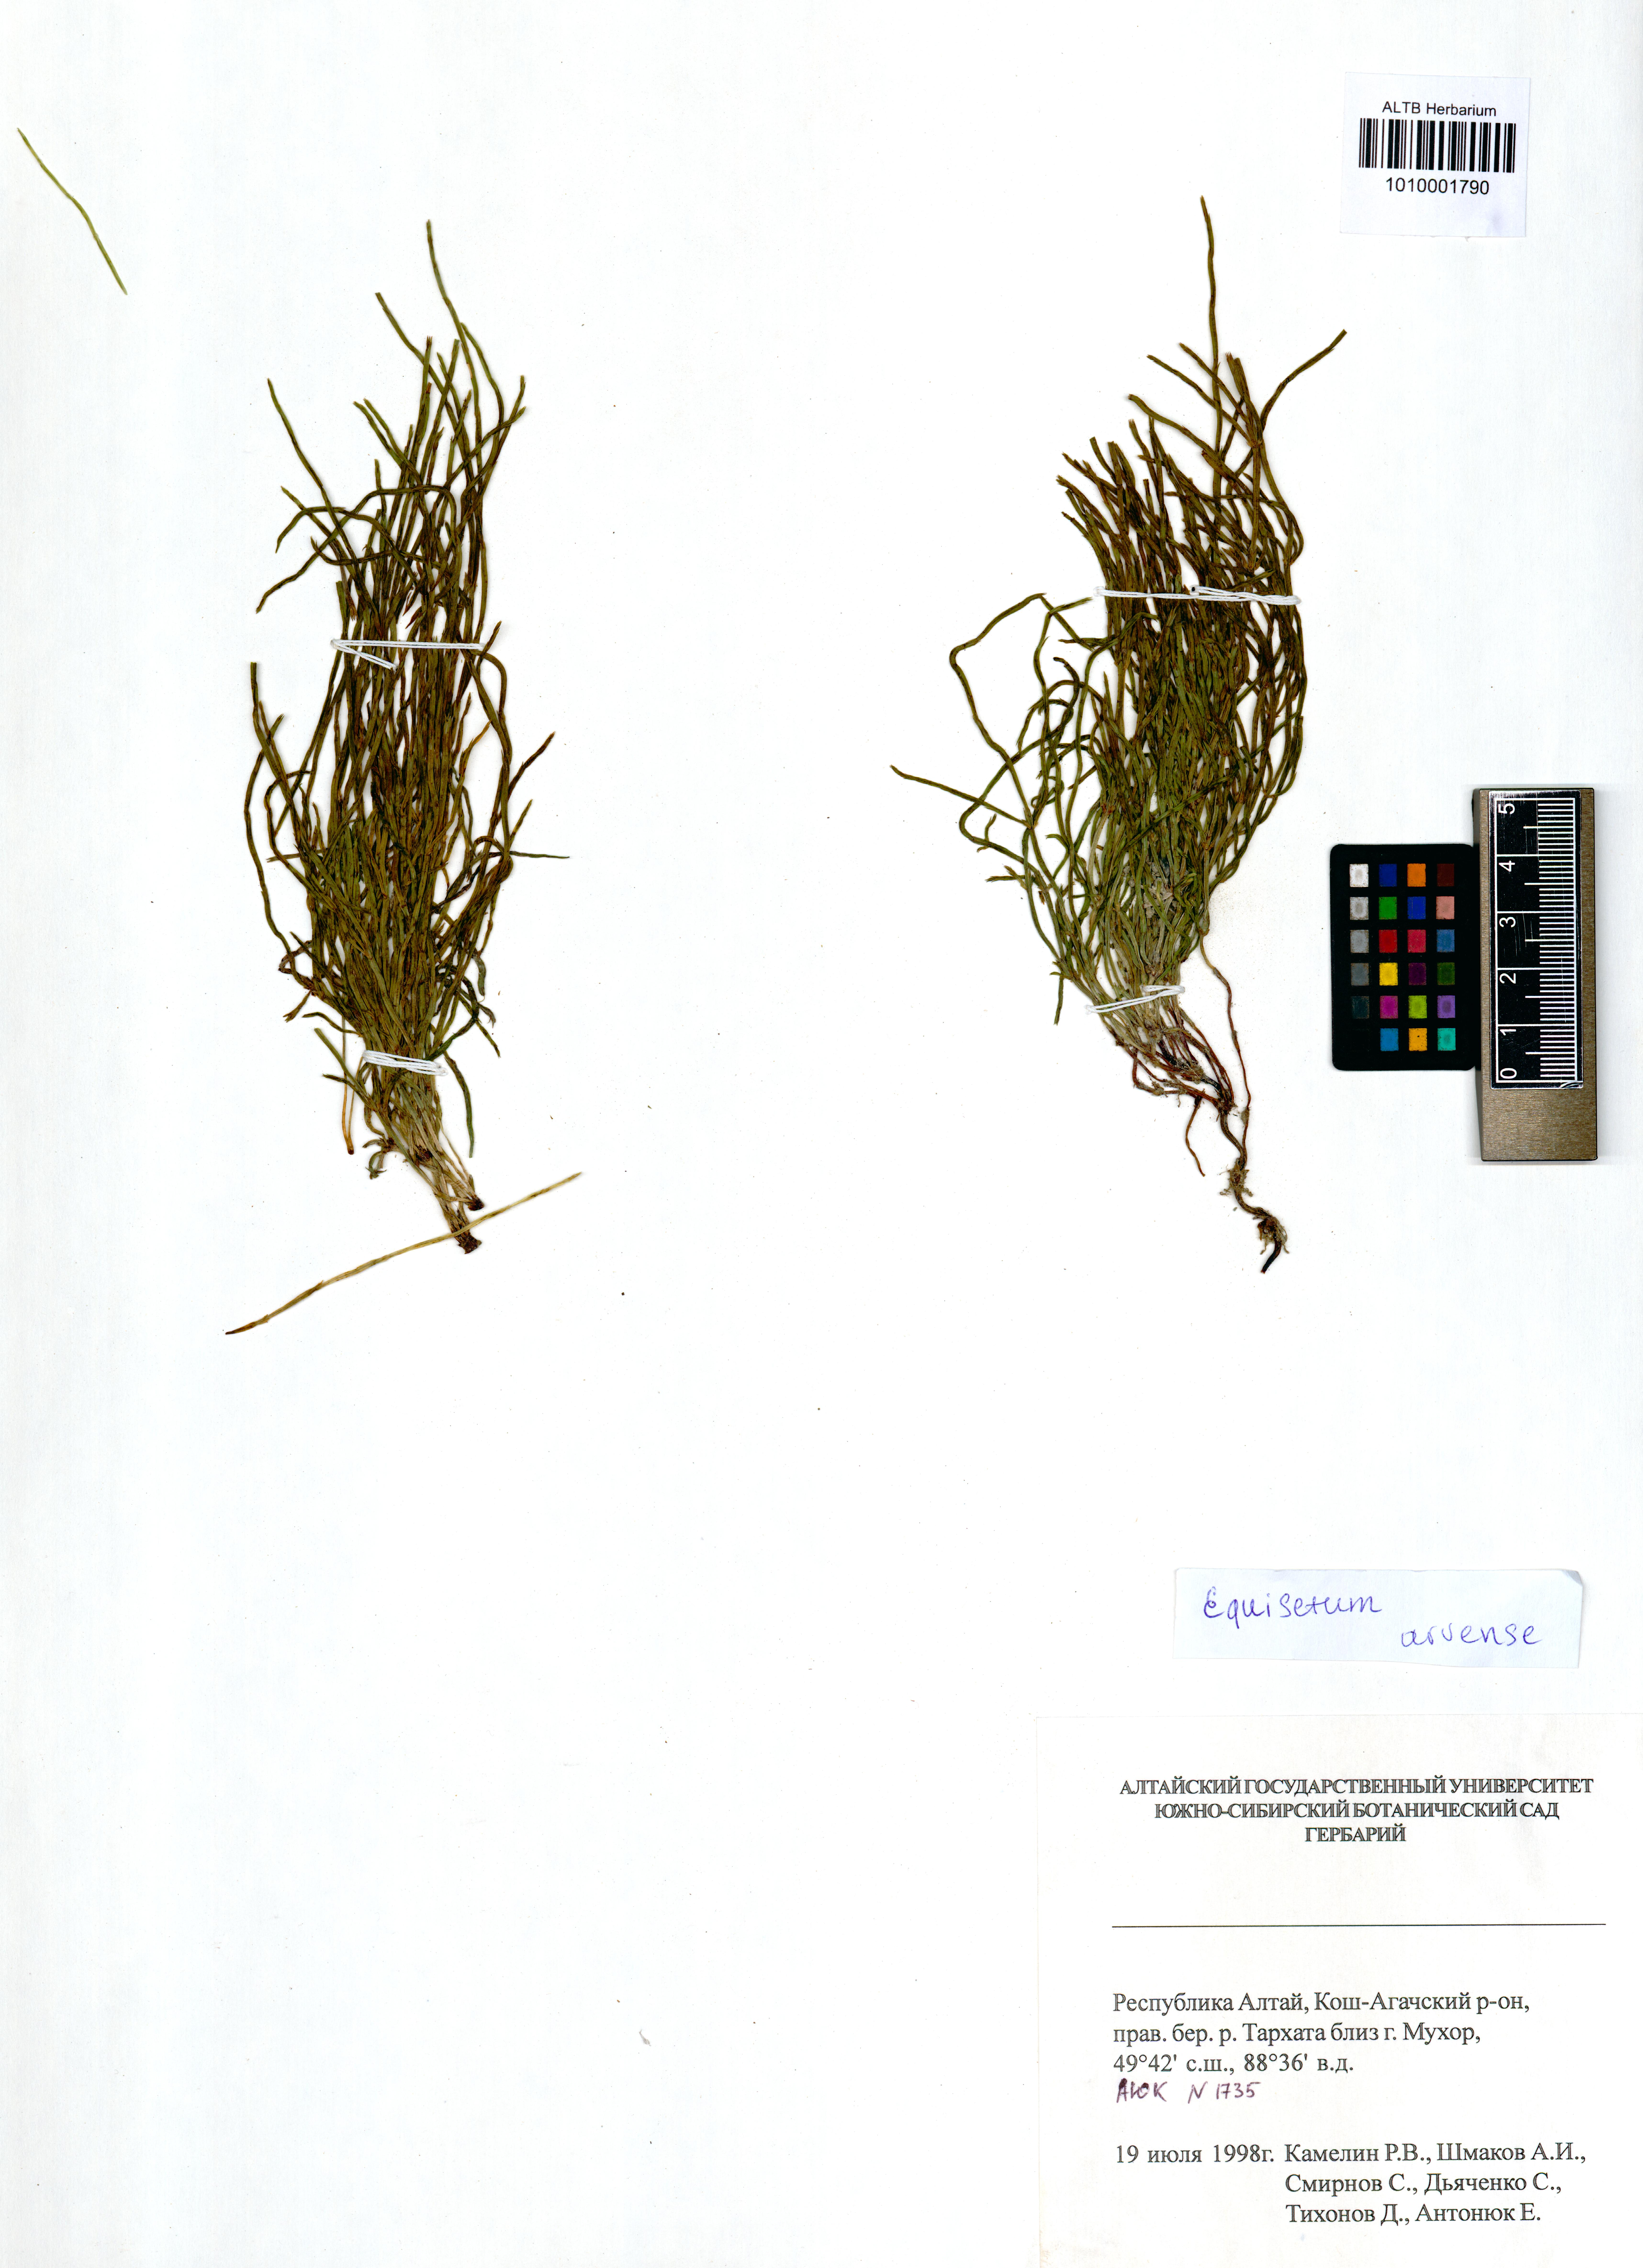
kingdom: Plantae
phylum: Tracheophyta
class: Polypodiopsida
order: Equisetales
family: Equisetaceae
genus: Equisetum
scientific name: Equisetum arvense
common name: Field horsetail
